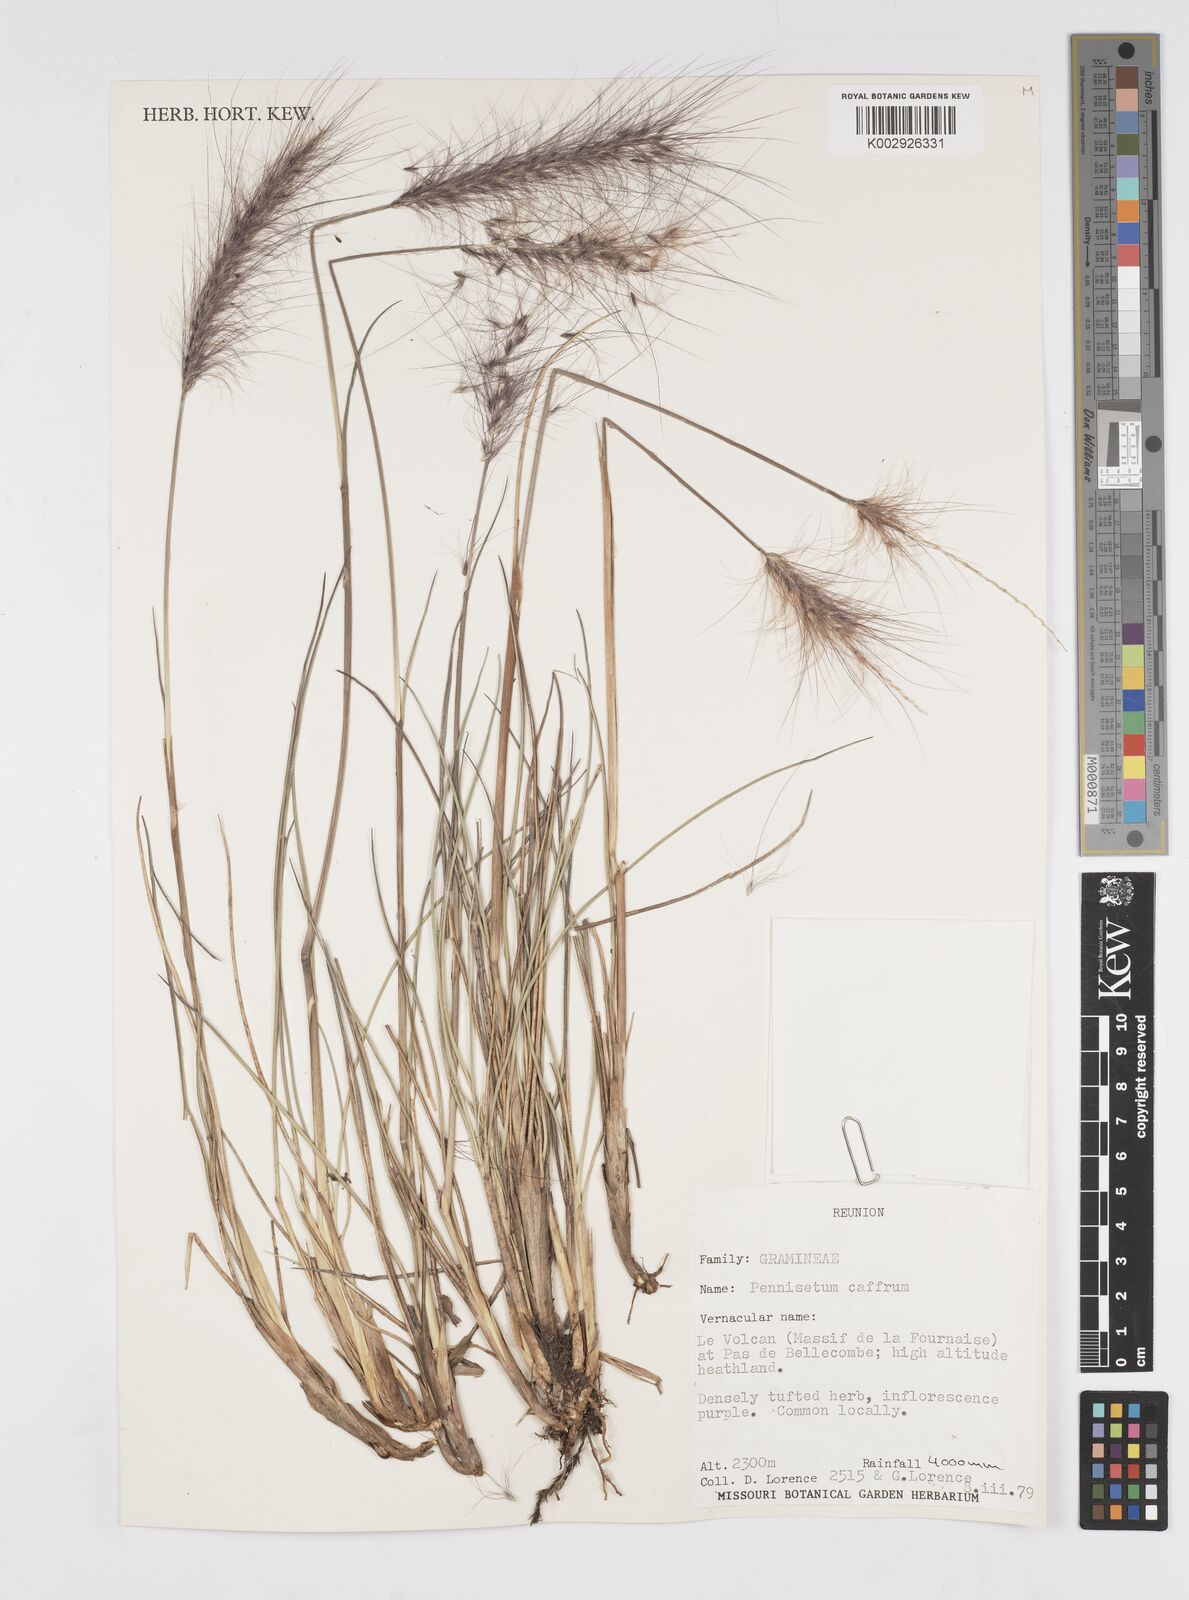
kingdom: Plantae
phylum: Tracheophyta
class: Liliopsida
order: Poales
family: Poaceae
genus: Cenchrus
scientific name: Cenchrus cafer
